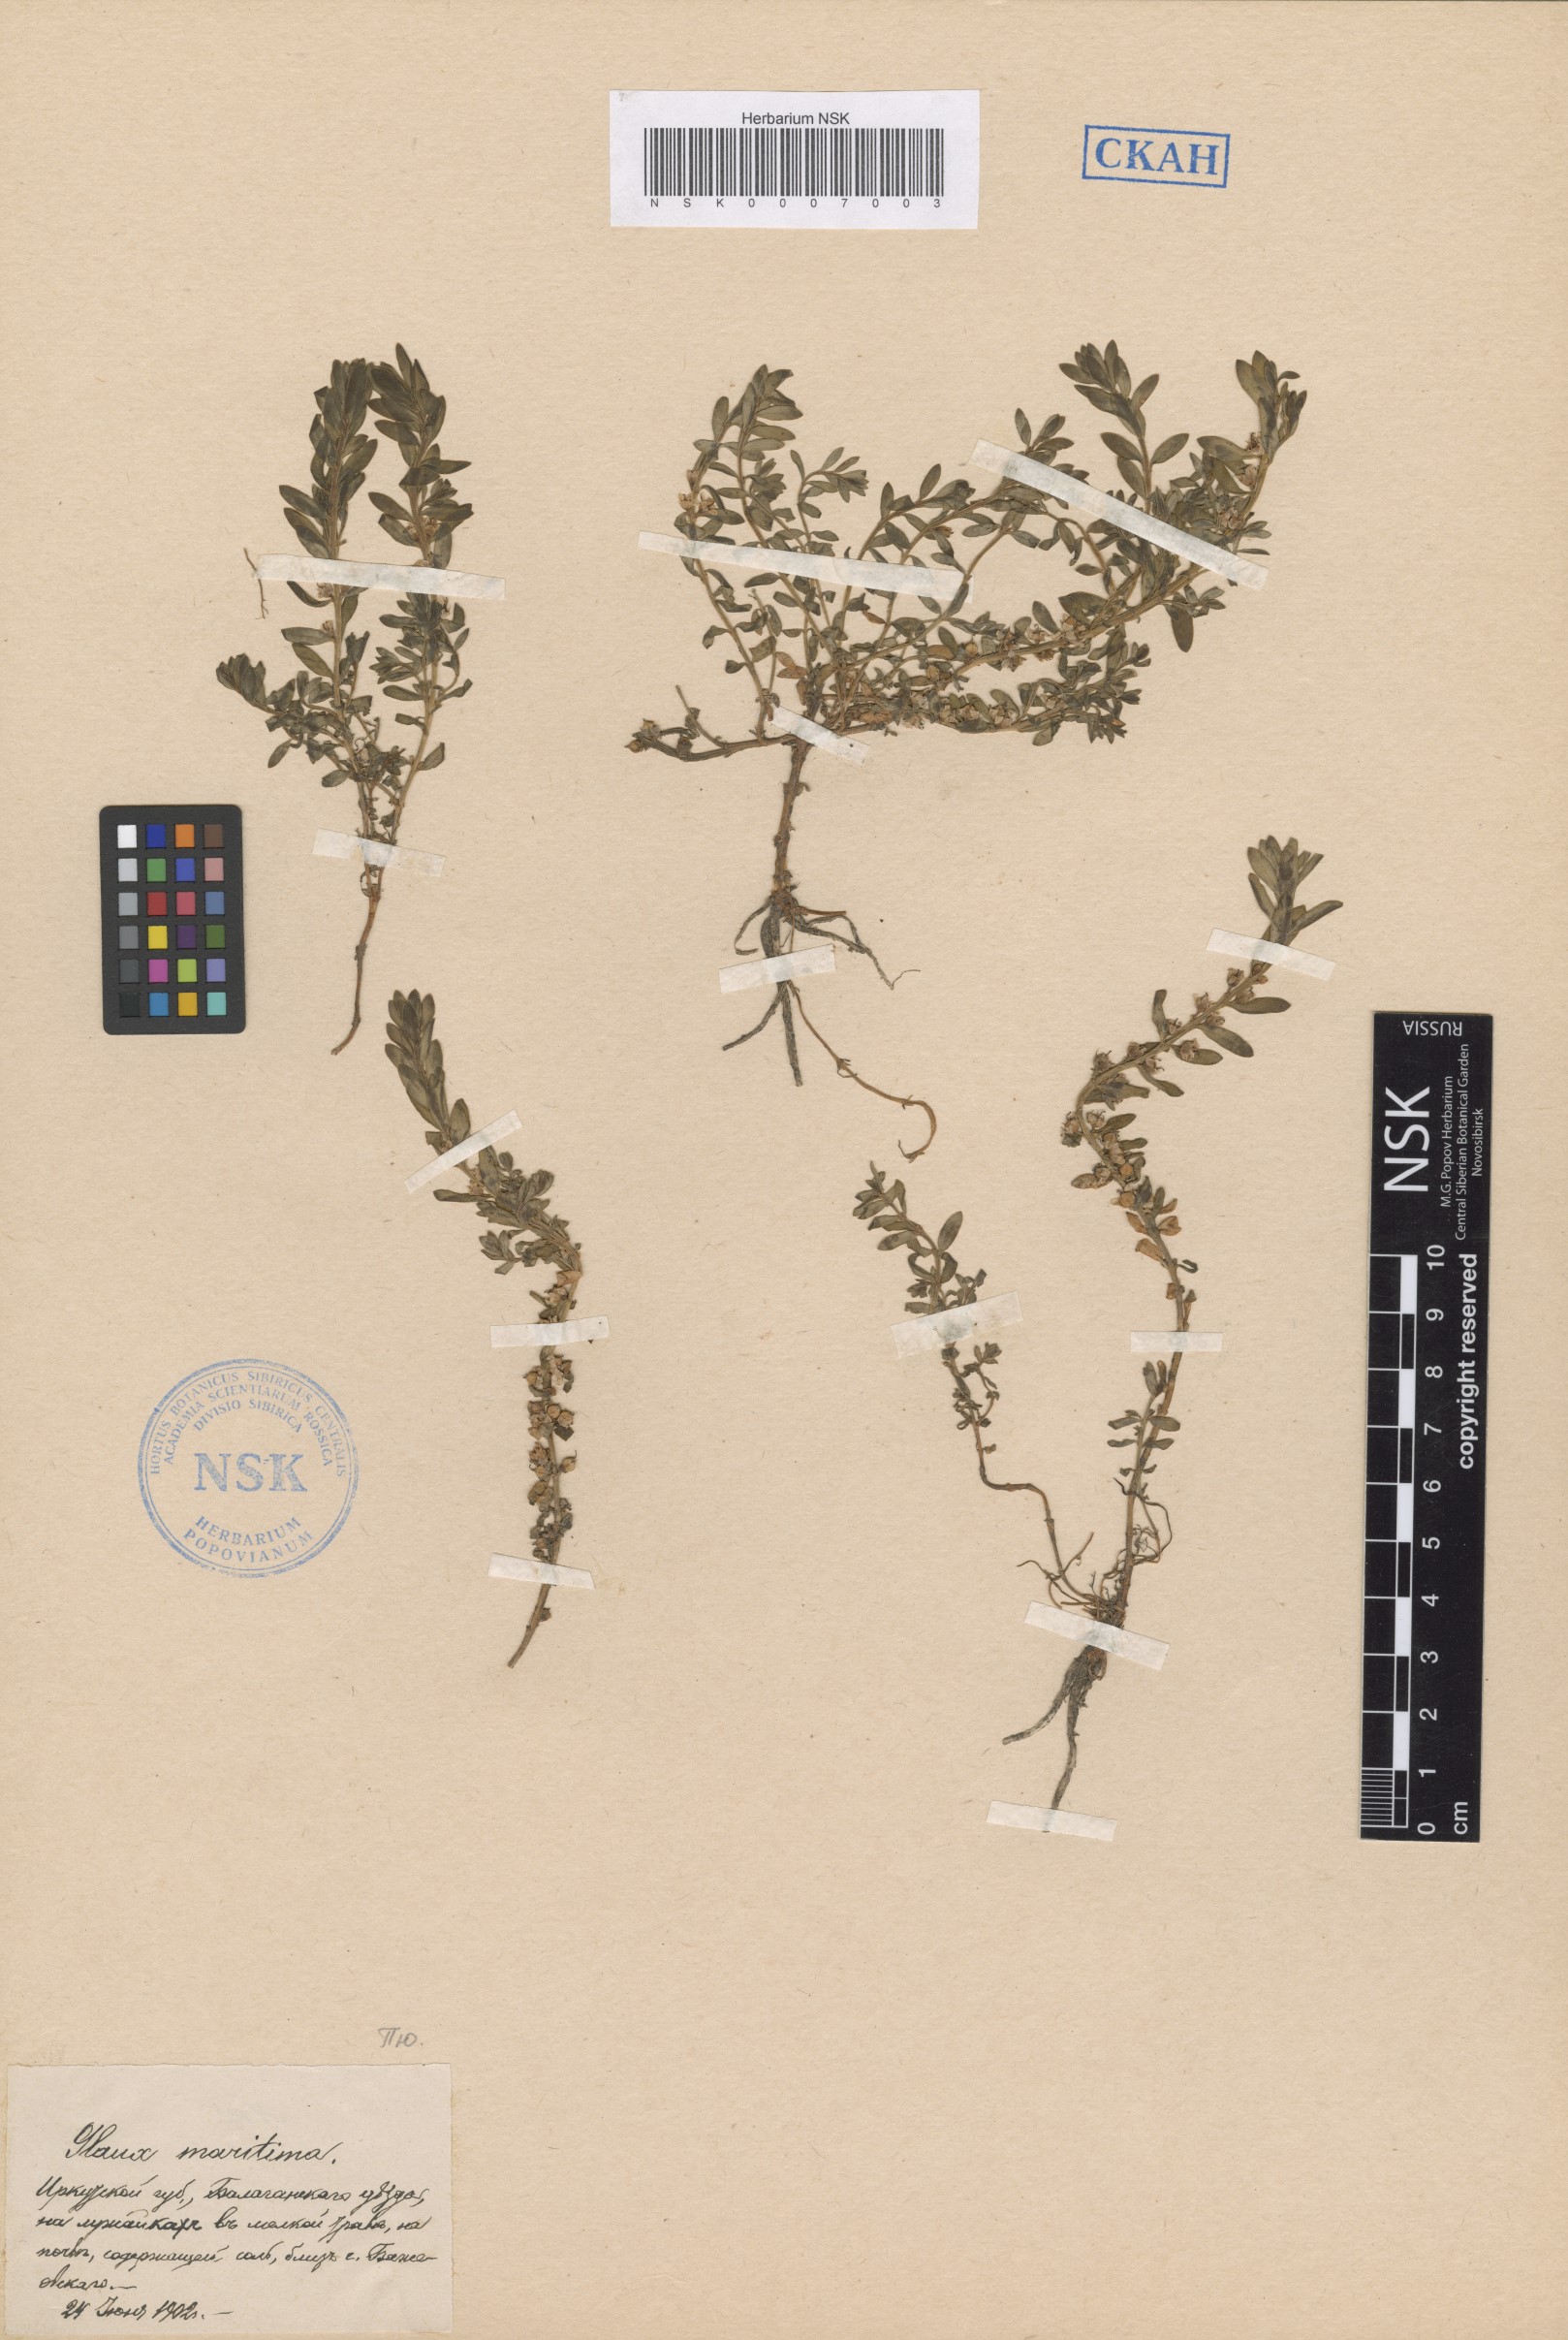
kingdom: Plantae
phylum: Tracheophyta
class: Magnoliopsida
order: Ericales
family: Primulaceae
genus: Lysimachia
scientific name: Lysimachia maritima
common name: Sea milkwort
